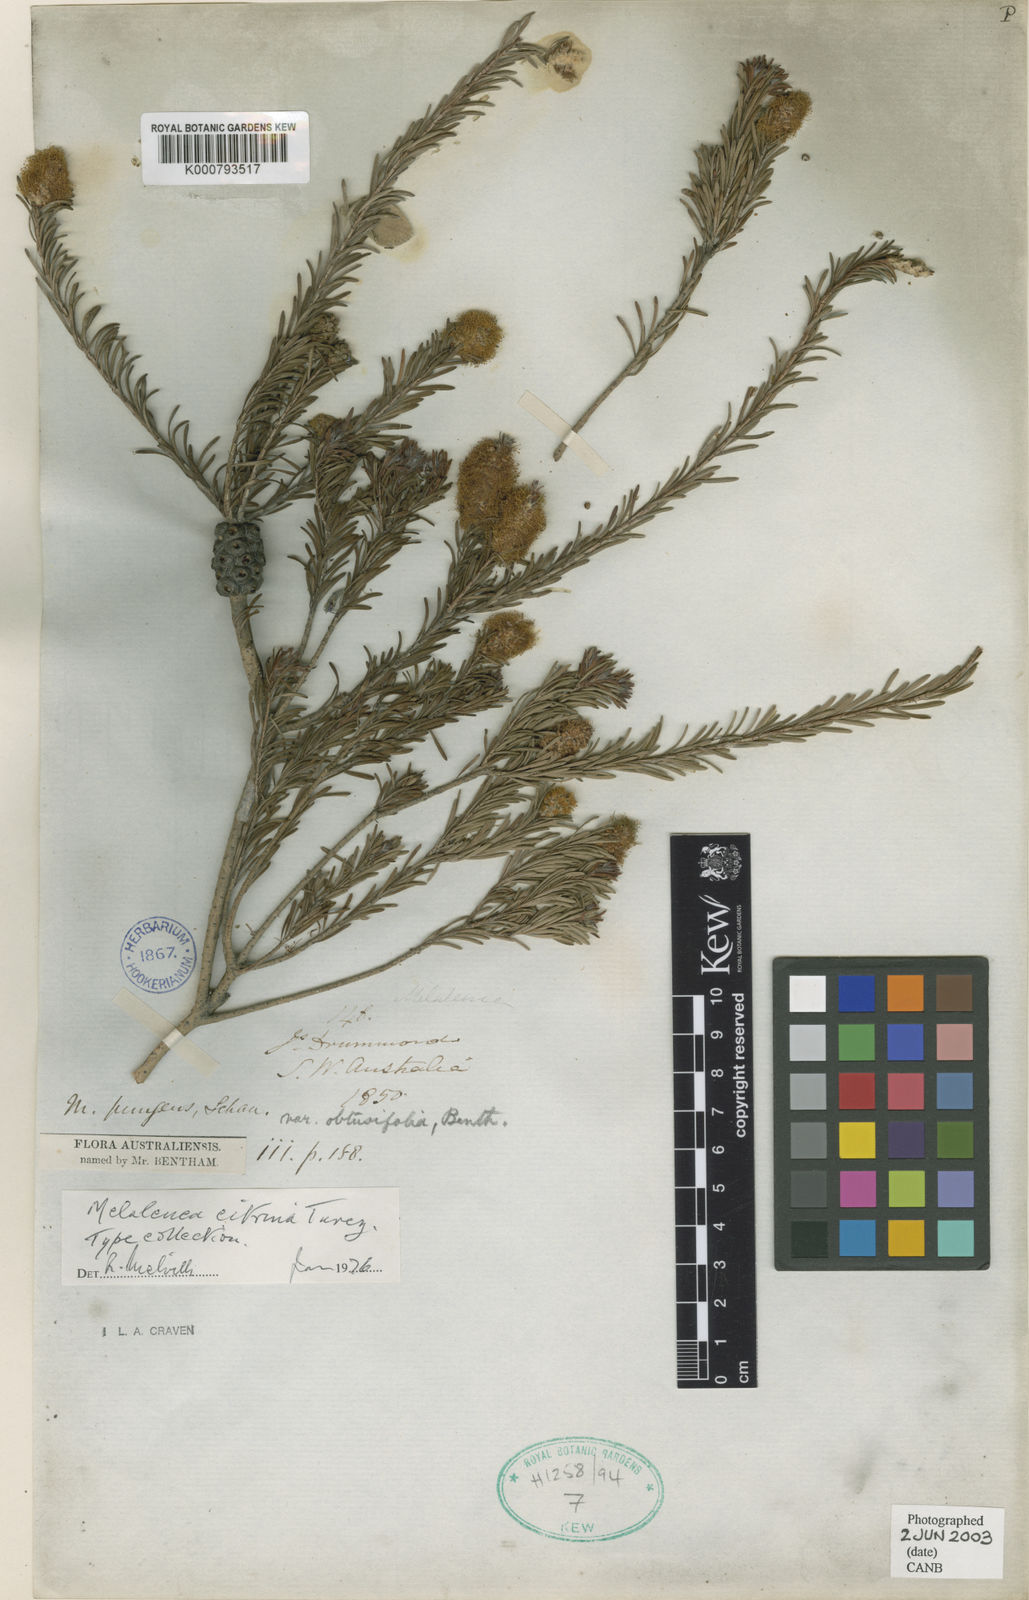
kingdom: Plantae
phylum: Tracheophyta
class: Magnoliopsida
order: Myrtales
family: Myrtaceae
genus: Melaleuca
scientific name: Melaleuca lutea
